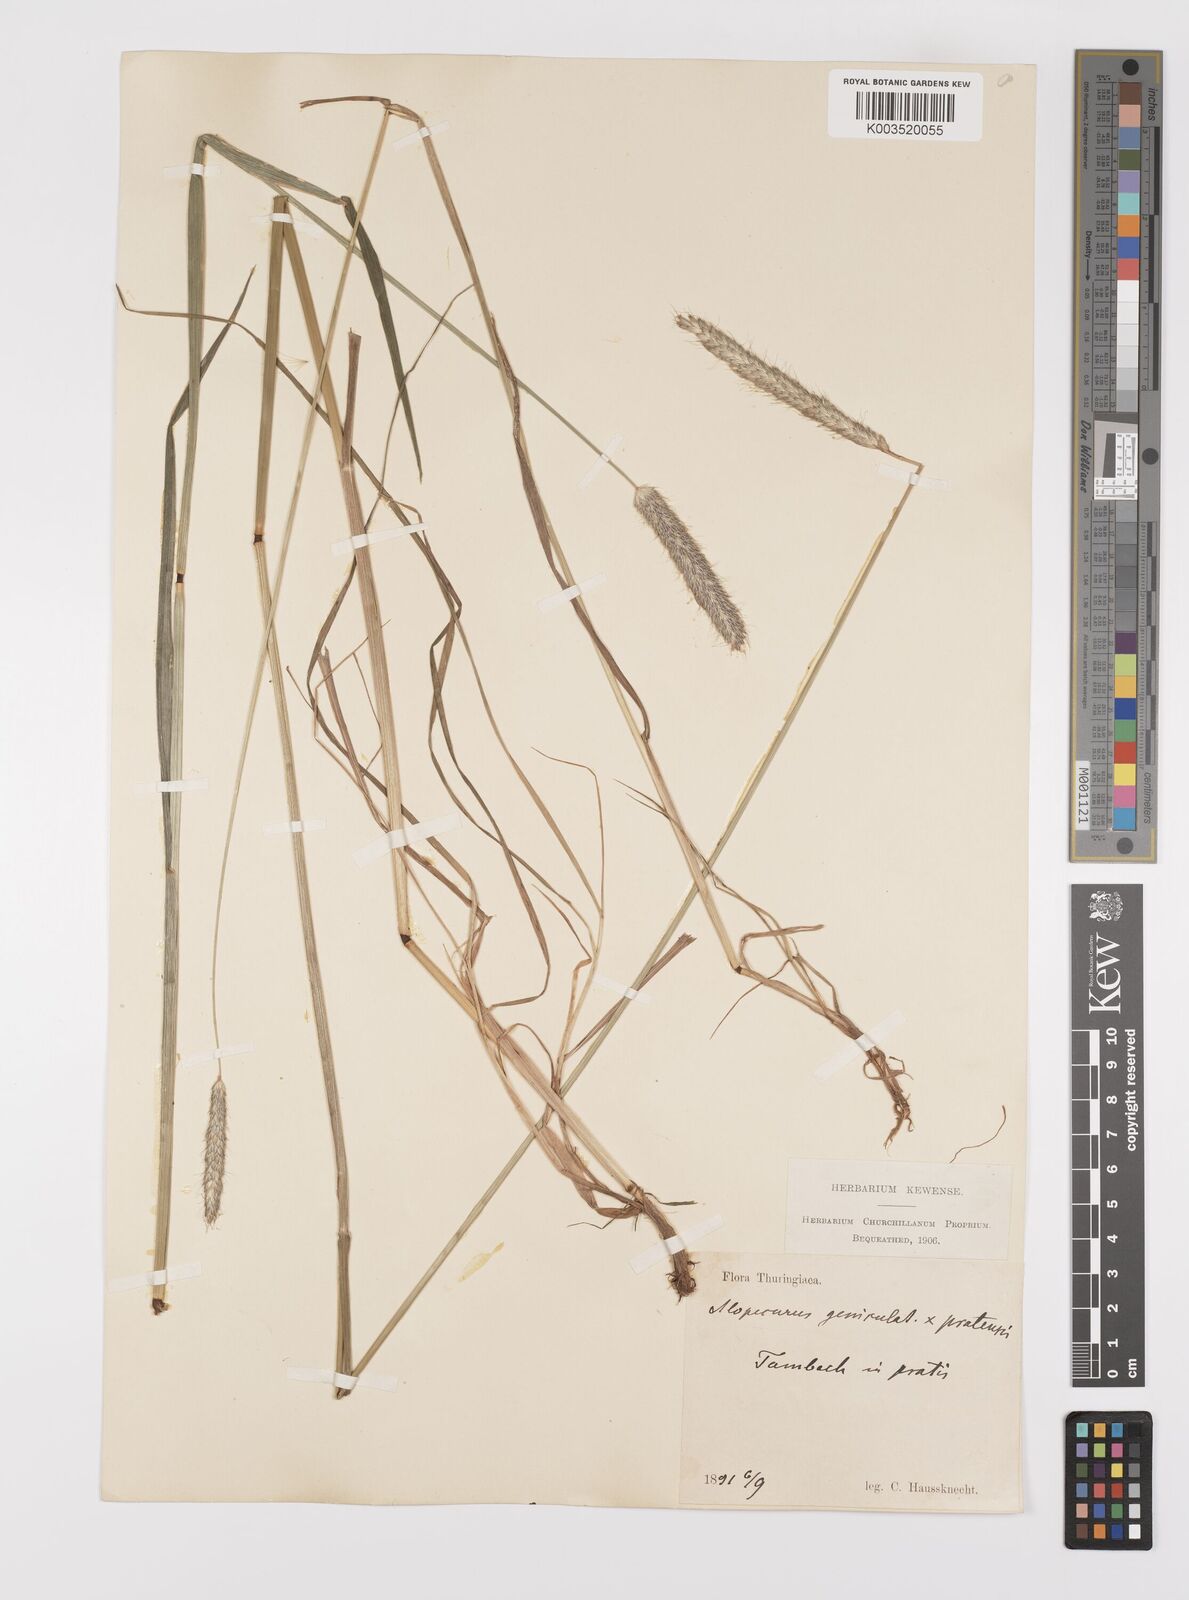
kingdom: Plantae
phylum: Tracheophyta
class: Liliopsida
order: Poales
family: Poaceae
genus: Alopecurus
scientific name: Alopecurus brachystylus
